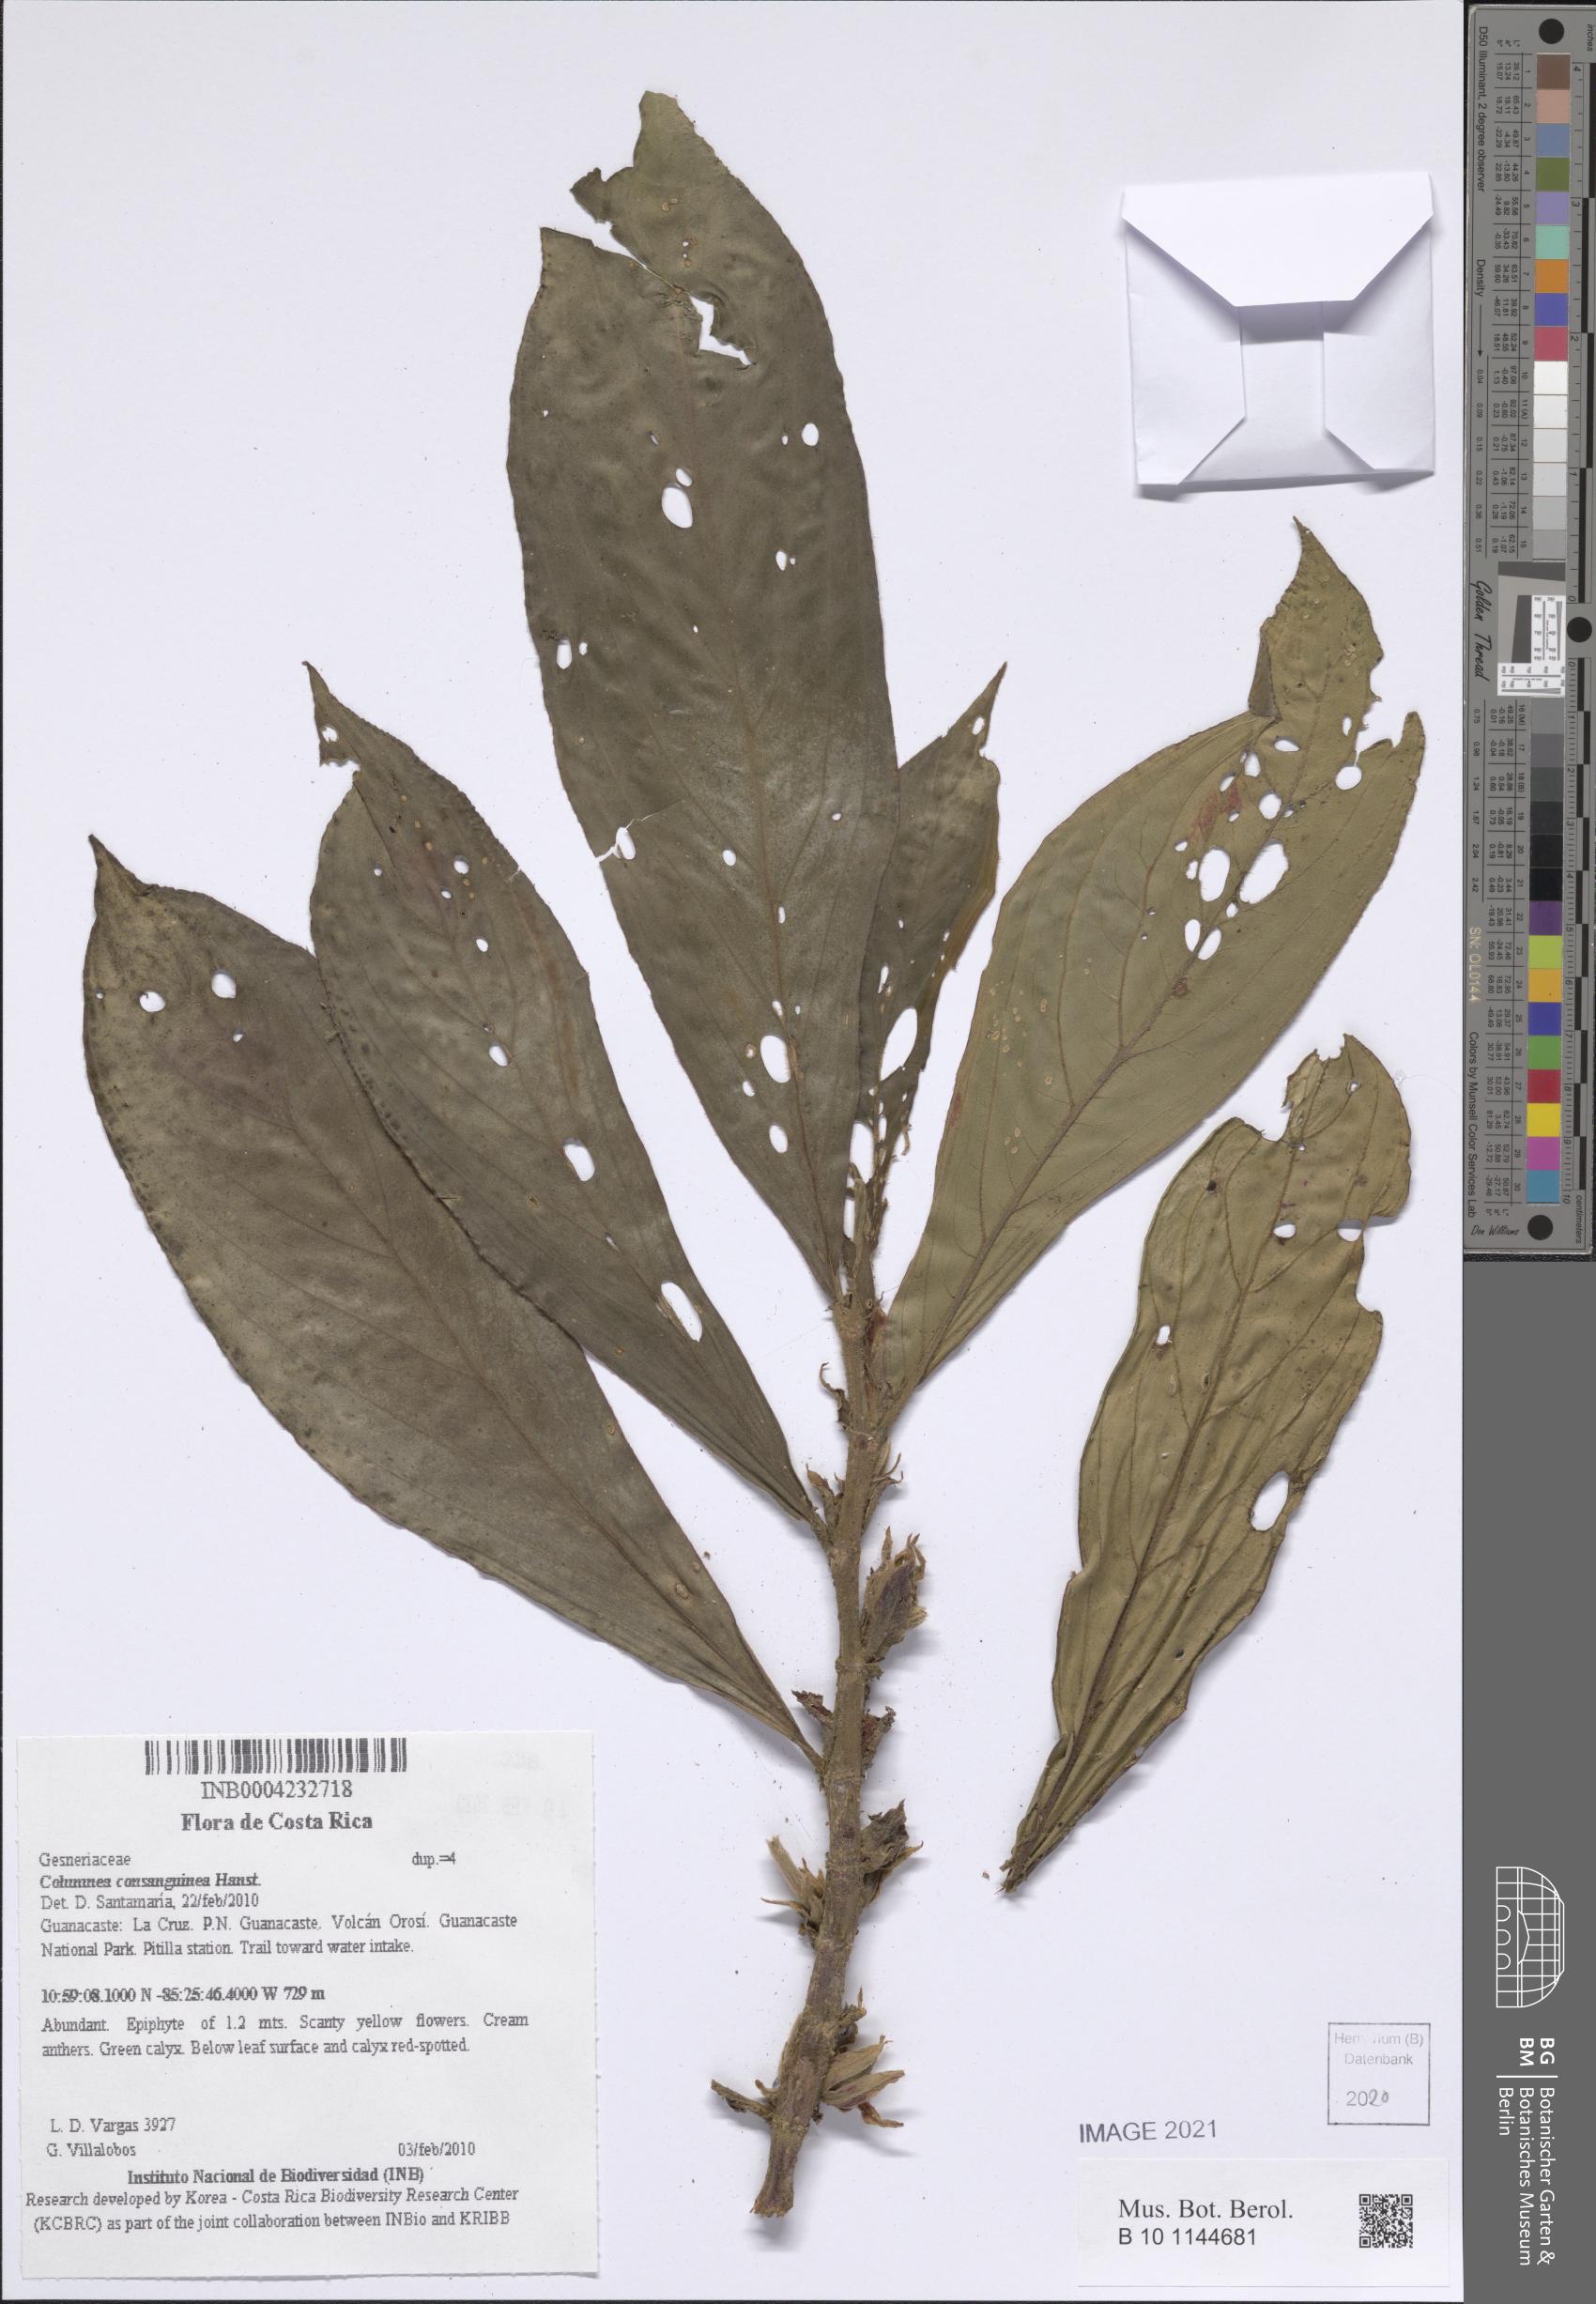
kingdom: Plantae
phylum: Tracheophyta
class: Magnoliopsida
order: Lamiales
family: Gesneriaceae
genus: Columnea
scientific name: Columnea consanguinea
